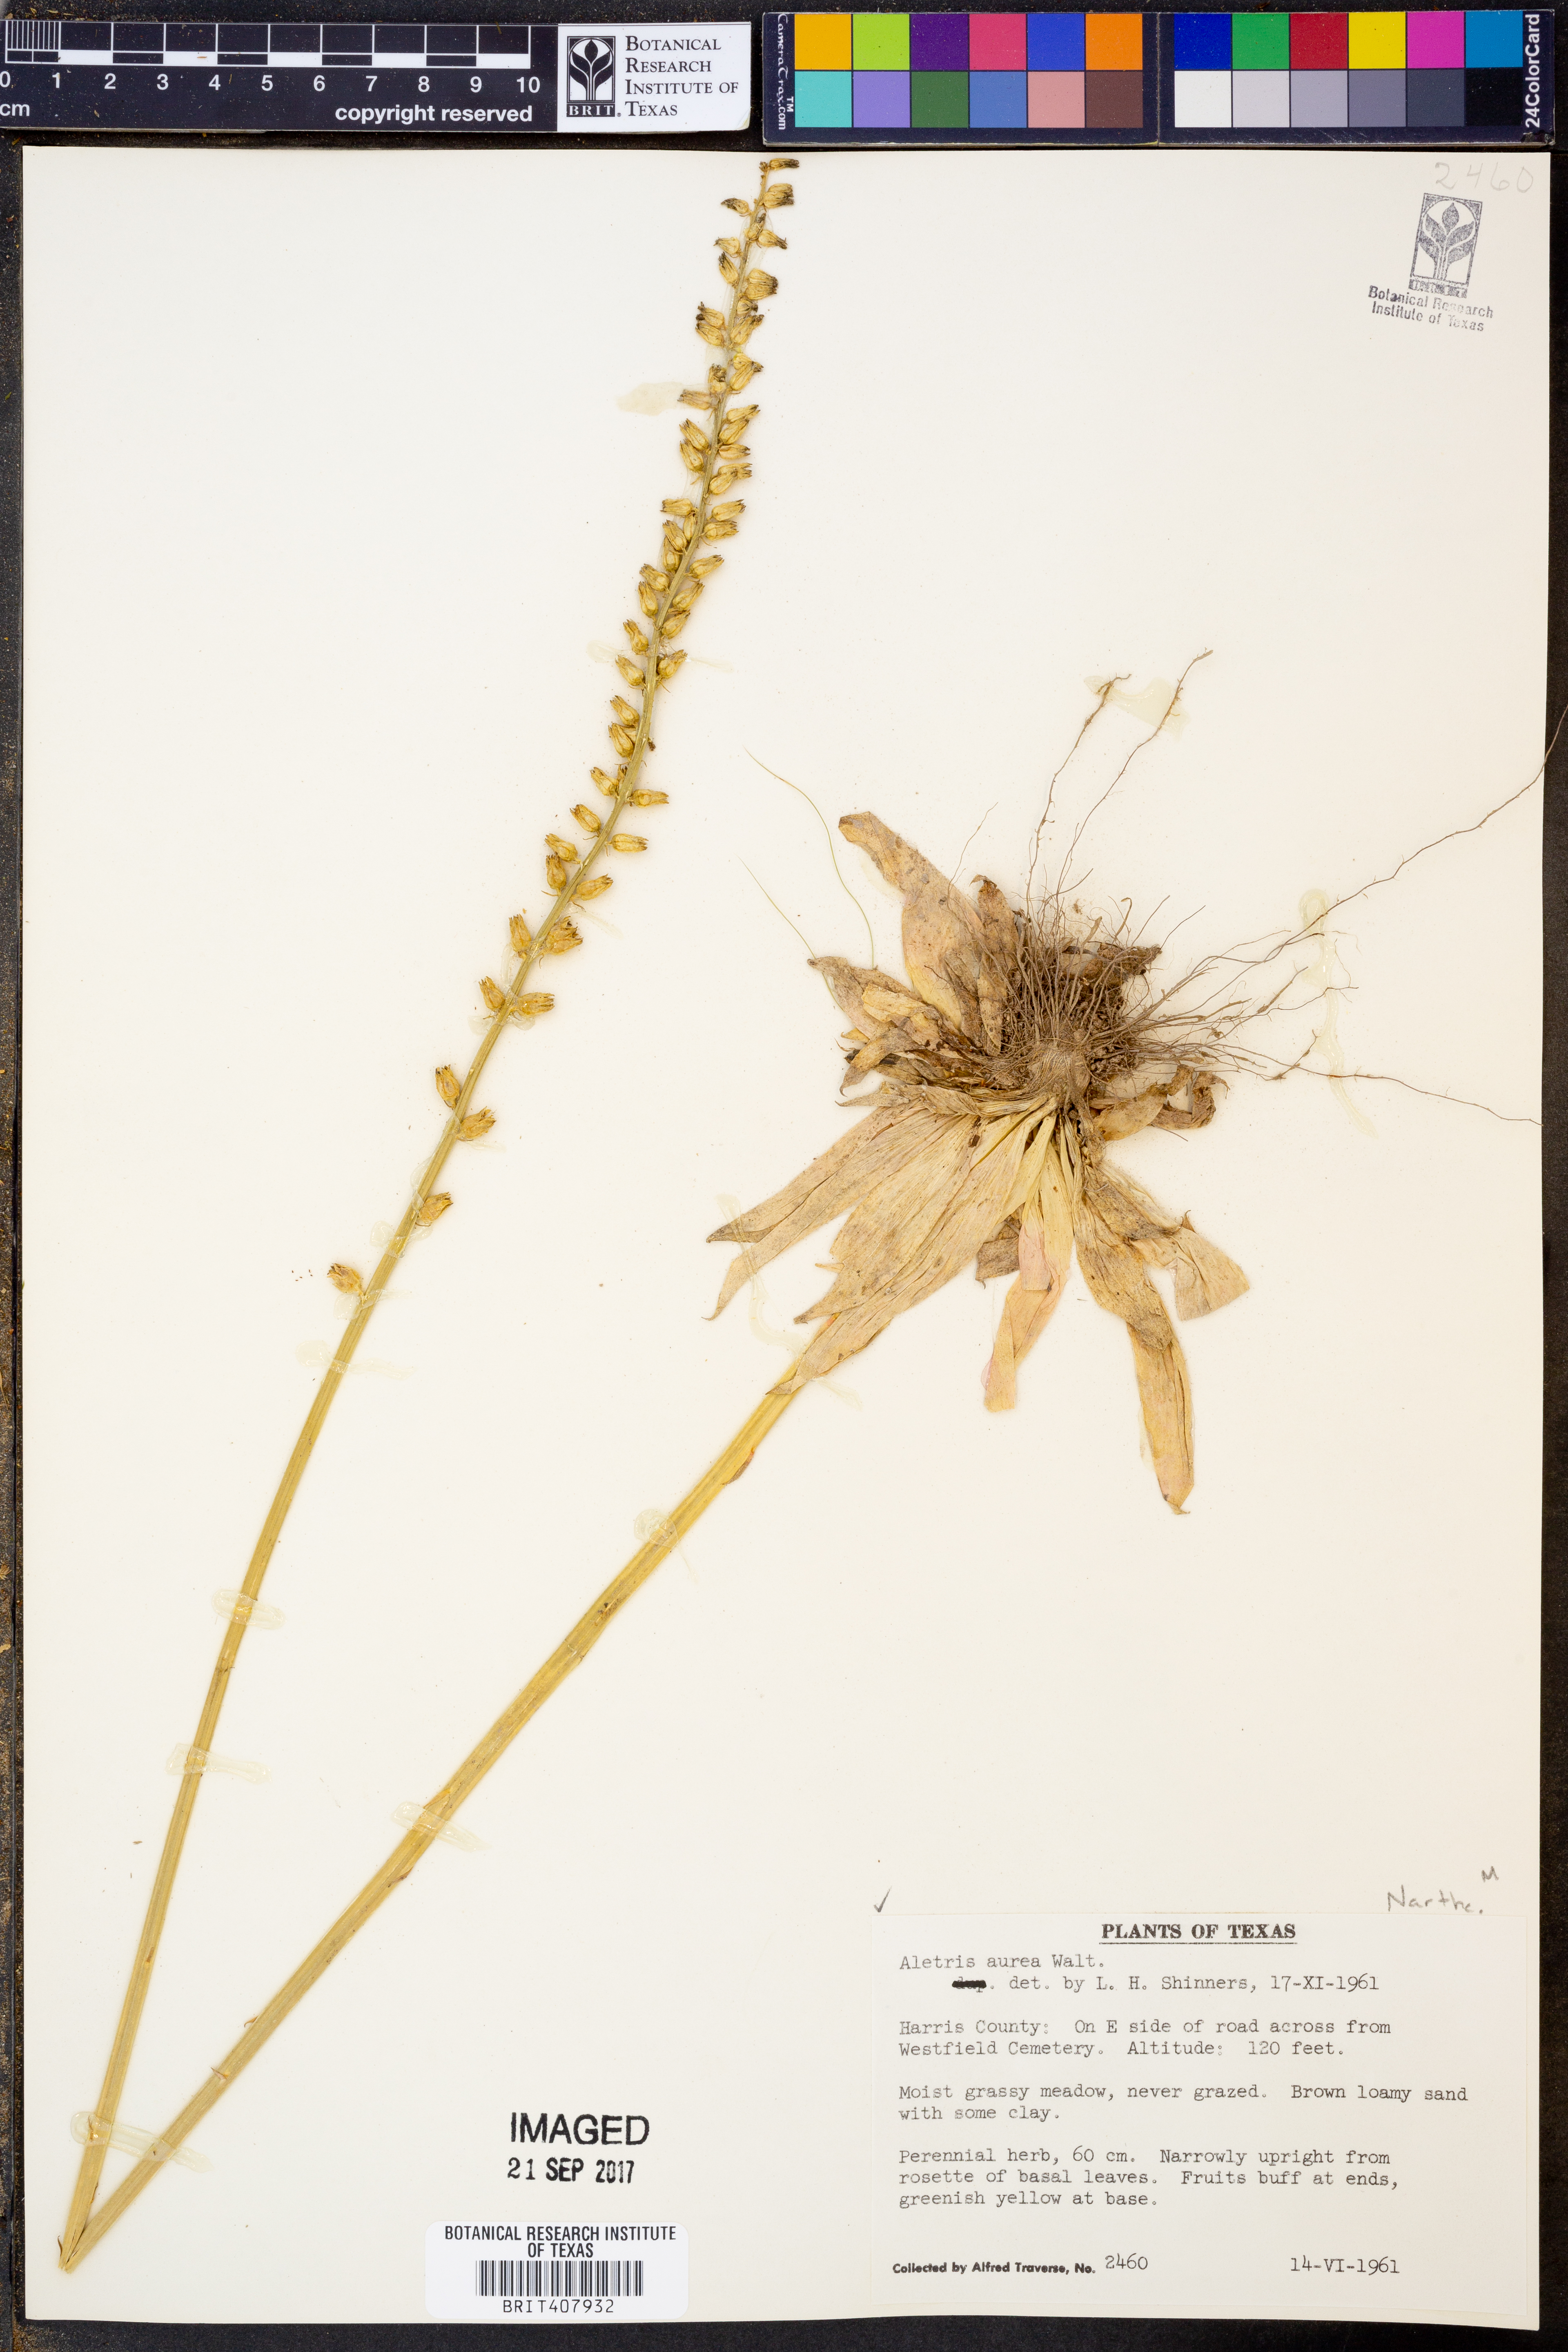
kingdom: Plantae
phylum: Tracheophyta
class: Liliopsida
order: Dioscoreales
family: Nartheciaceae
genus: Aletris
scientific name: Aletris aurea
